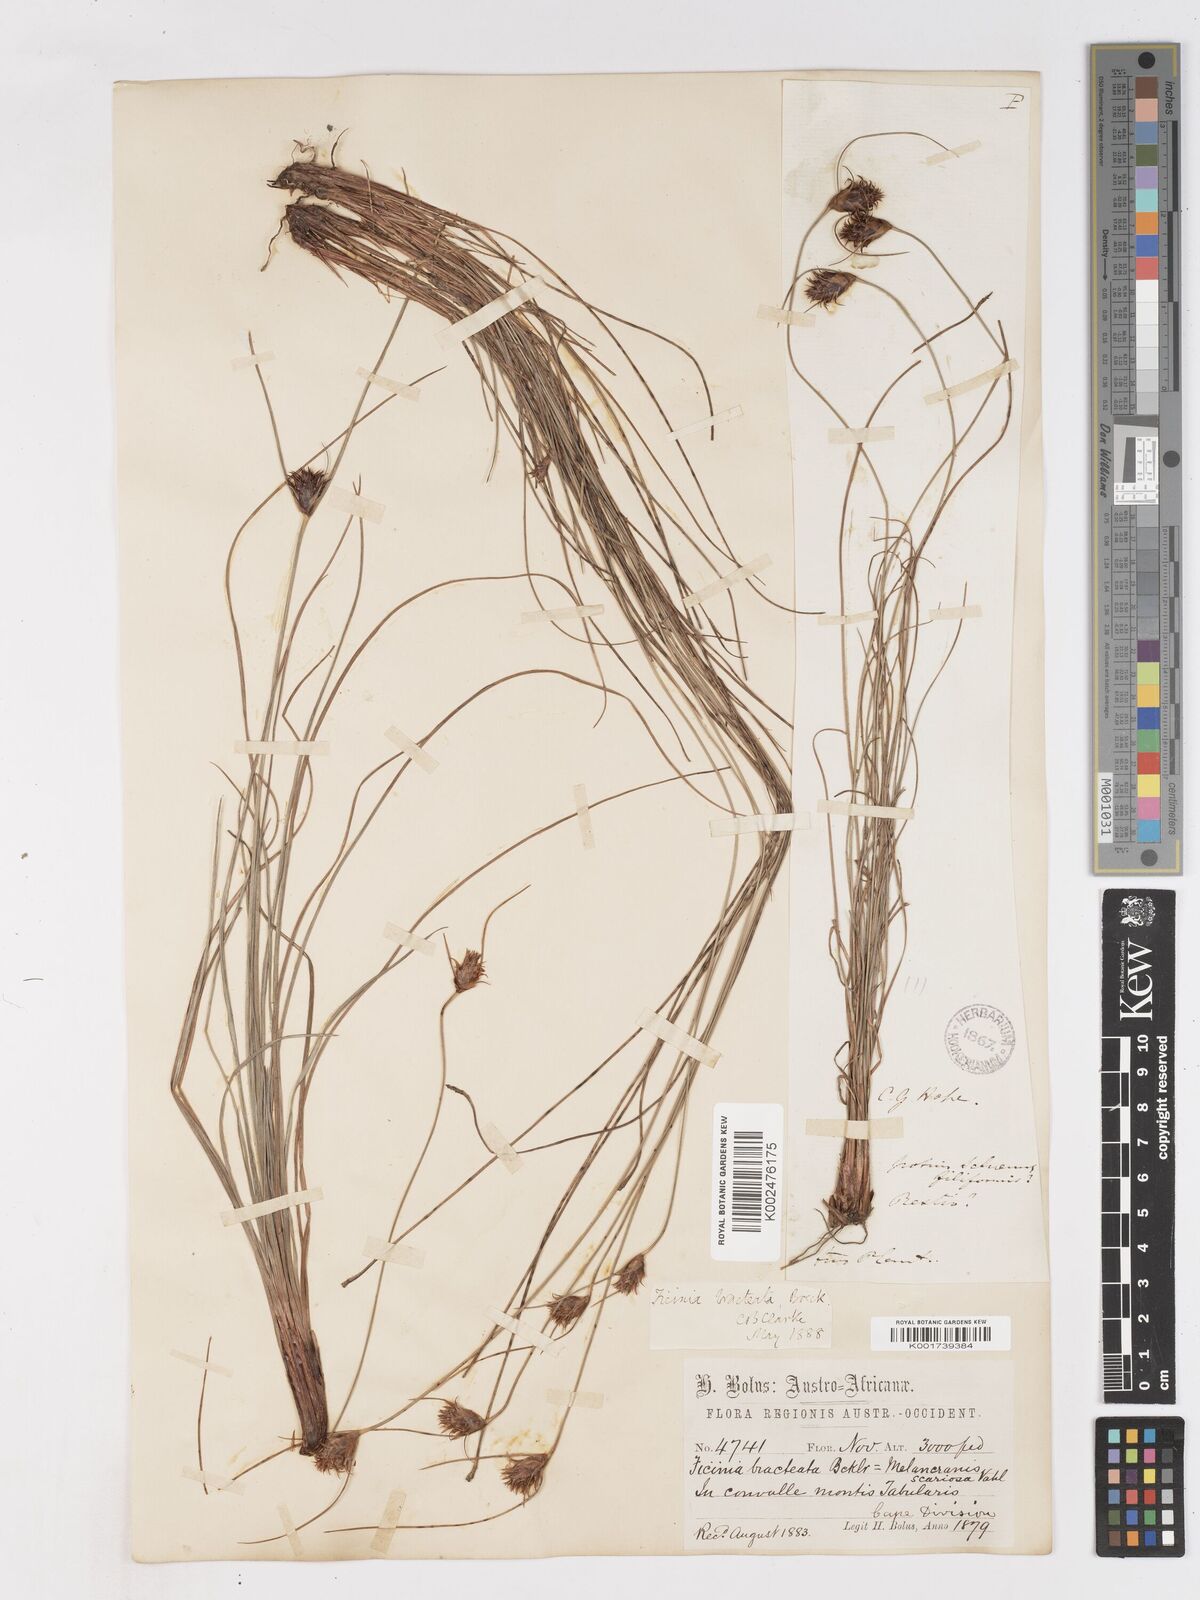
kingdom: Plantae
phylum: Tracheophyta
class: Liliopsida
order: Poales
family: Cyperaceae
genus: Ficinia
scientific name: Ficinia nigrescens
